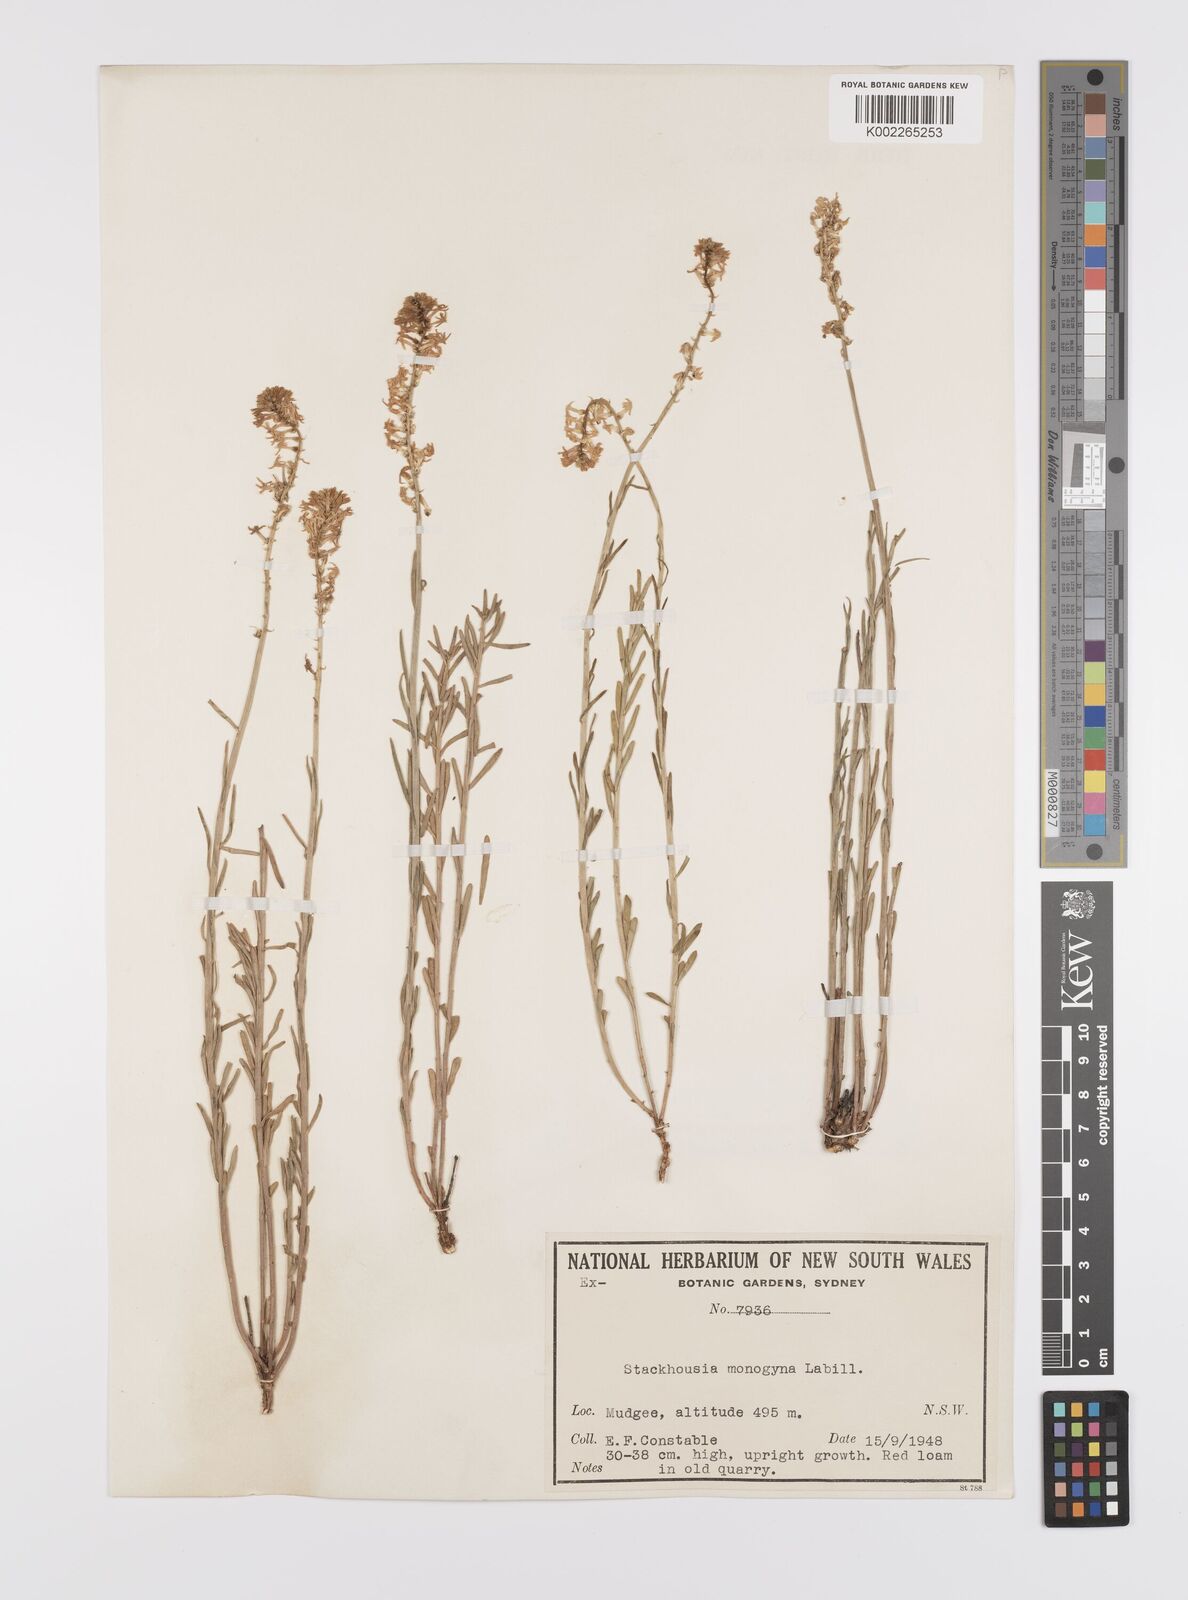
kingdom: Plantae
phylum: Tracheophyta
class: Magnoliopsida
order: Celastrales
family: Celastraceae
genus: Stackhousia
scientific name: Stackhousia monogyna
